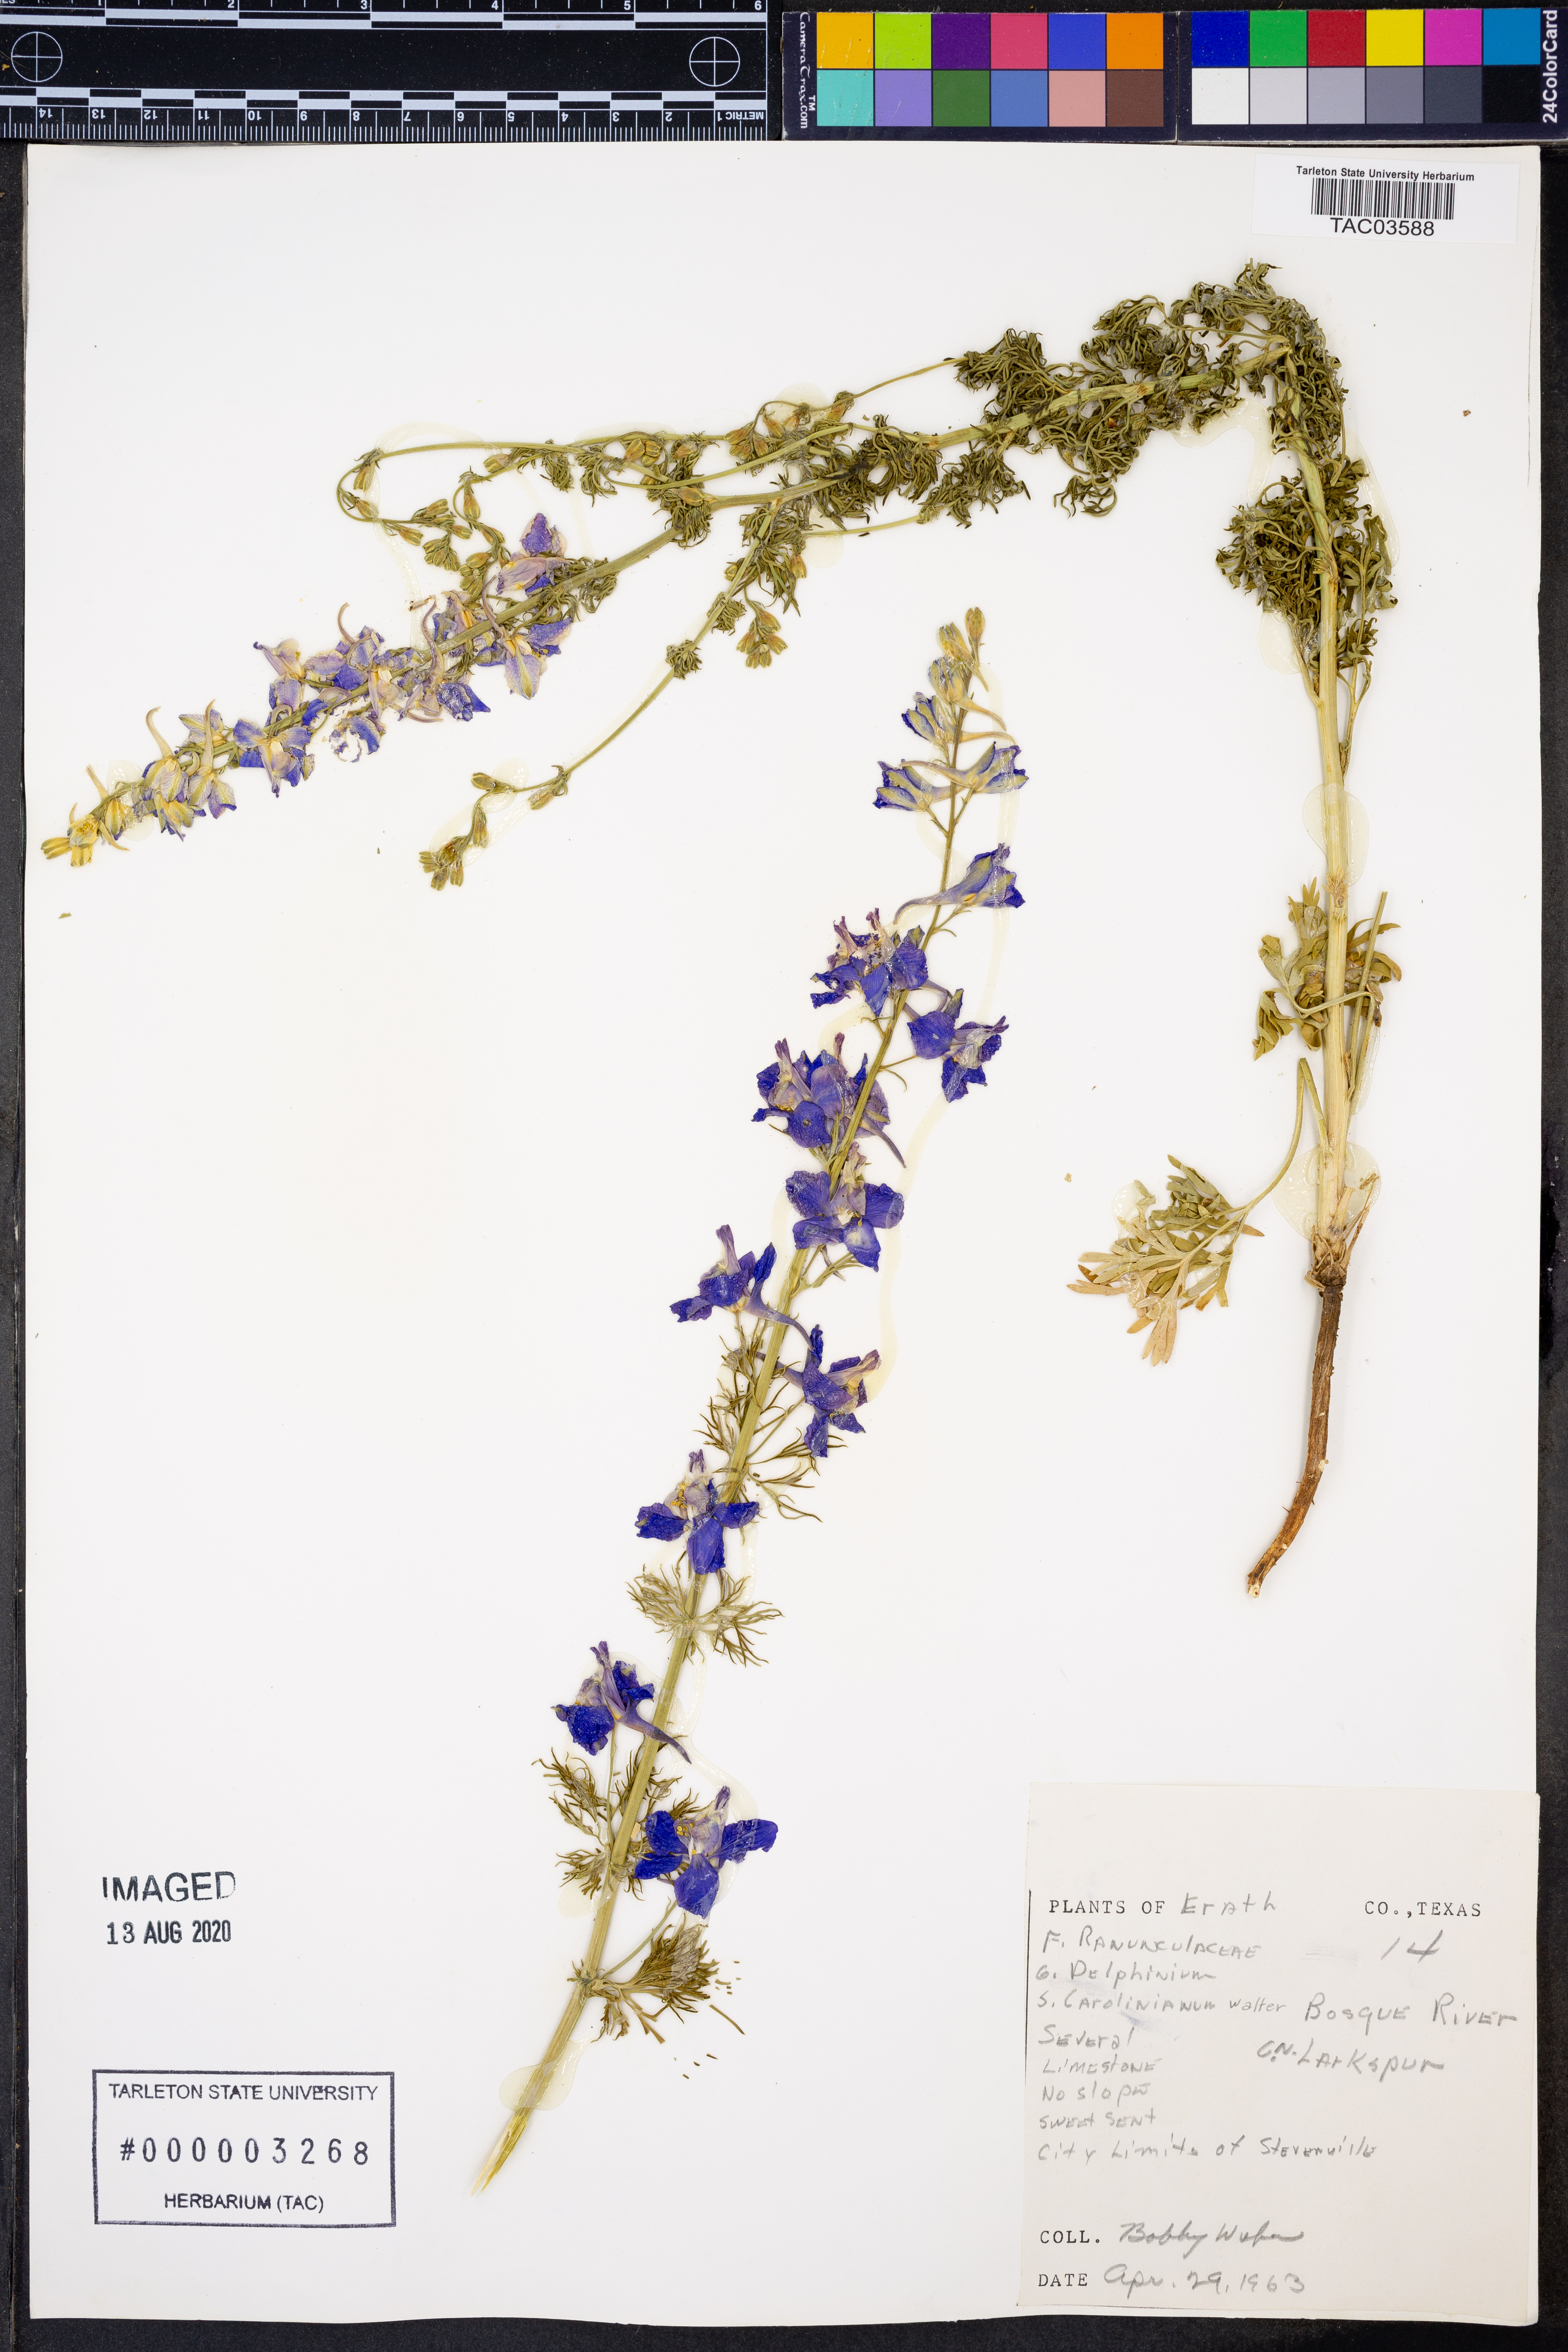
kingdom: Plantae
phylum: Tracheophyta
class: Magnoliopsida
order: Ranunculales
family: Ranunculaceae
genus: Delphinium
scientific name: Delphinium carolinianum
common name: Carolina larkspur
